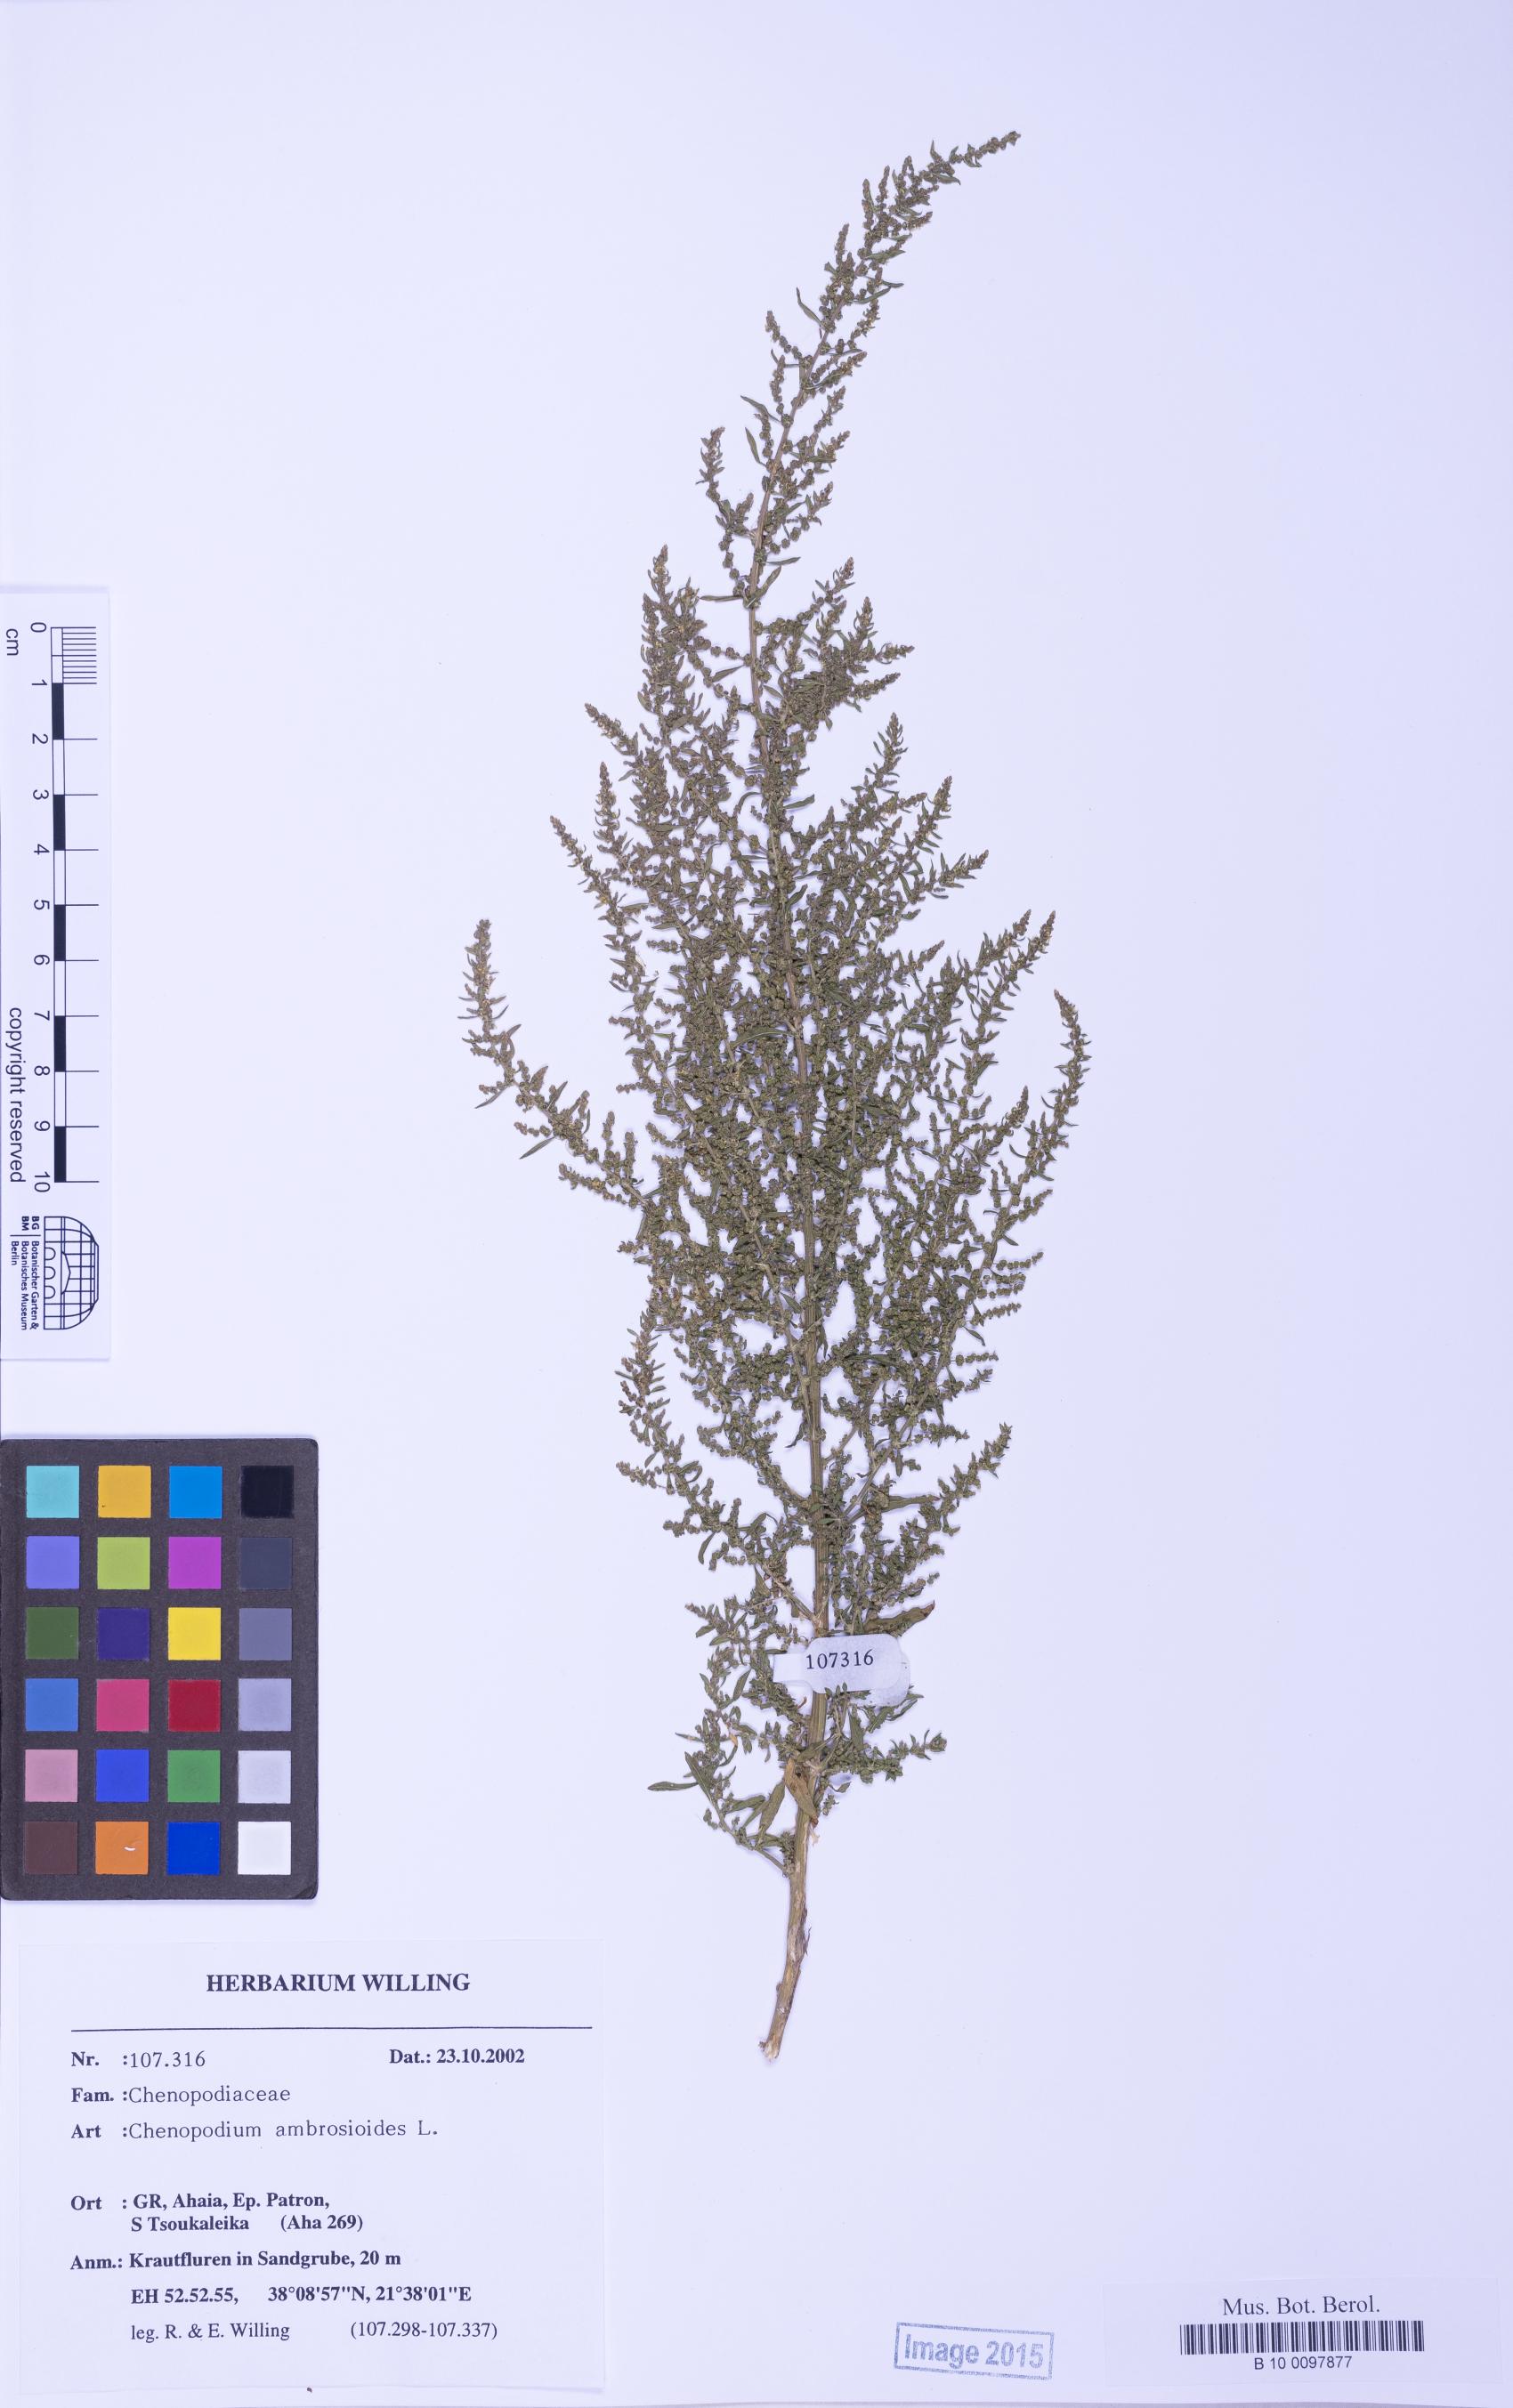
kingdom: Plantae
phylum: Tracheophyta
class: Magnoliopsida
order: Caryophyllales
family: Amaranthaceae
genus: Dysphania
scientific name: Dysphania ambrosioides
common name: Wormseed
